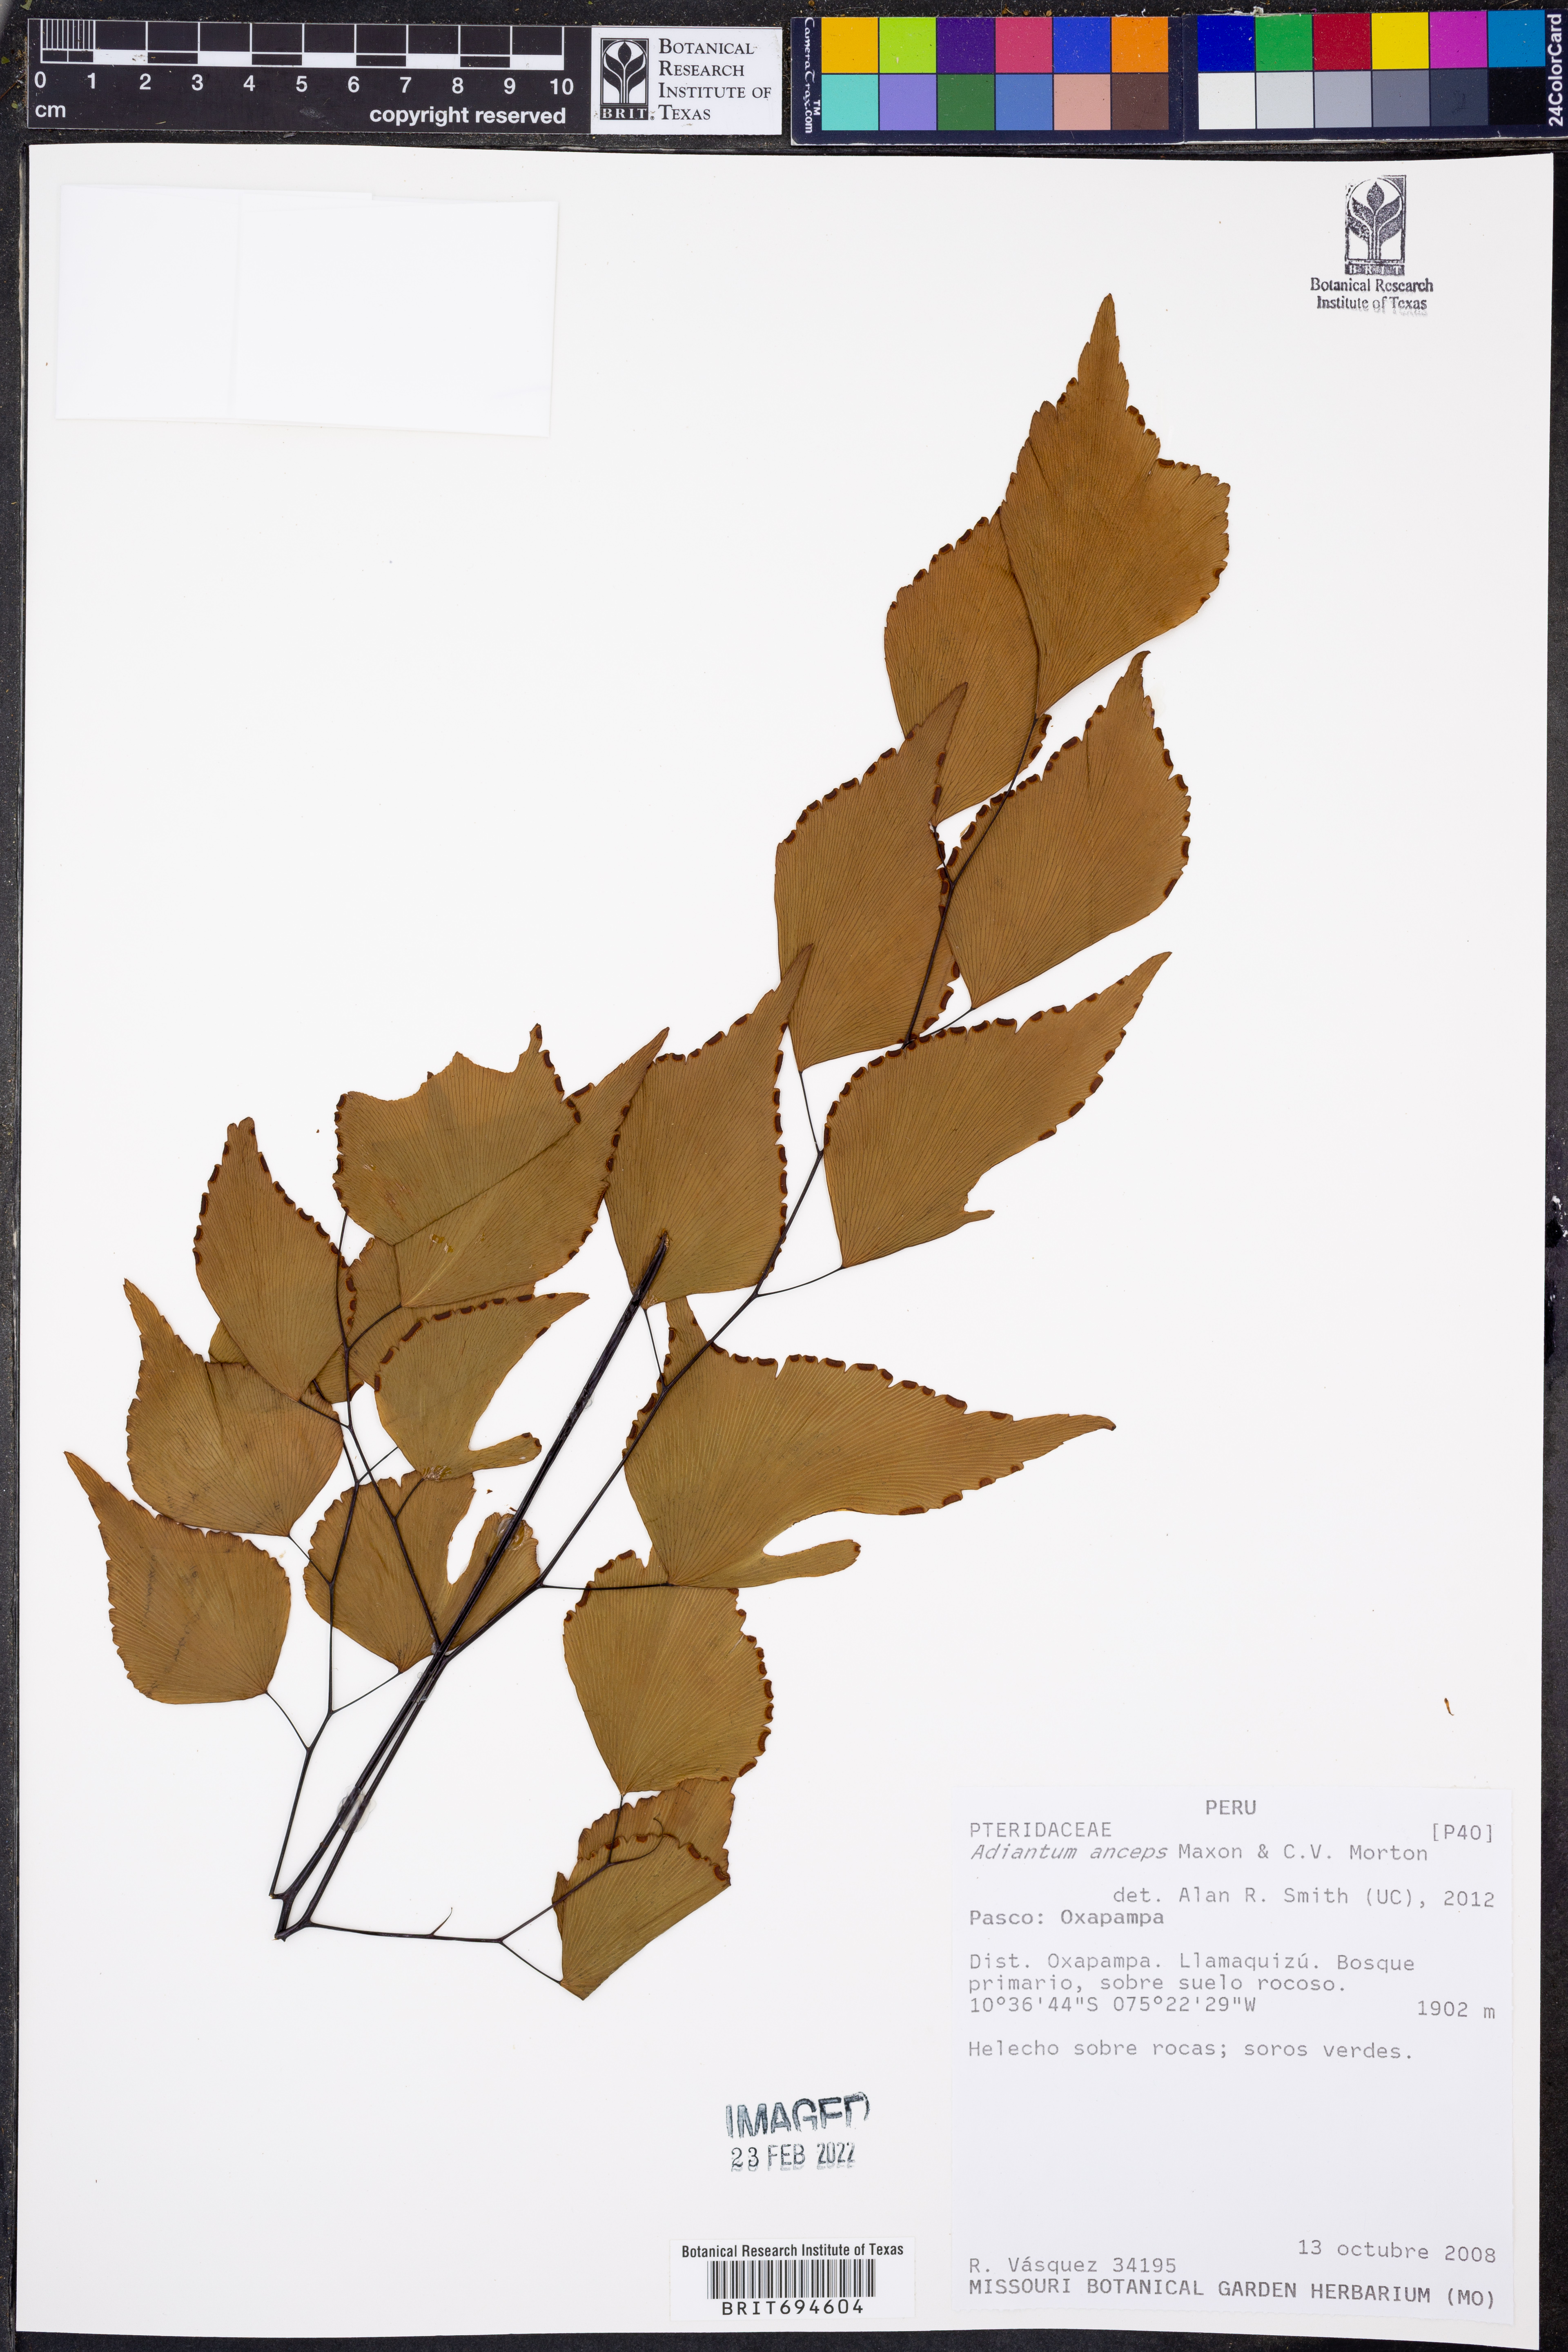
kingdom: Plantae
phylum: Tracheophyta
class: Polypodiopsida
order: Polypodiales
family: Pteridaceae
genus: Adiantum
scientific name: Adiantum anceps
